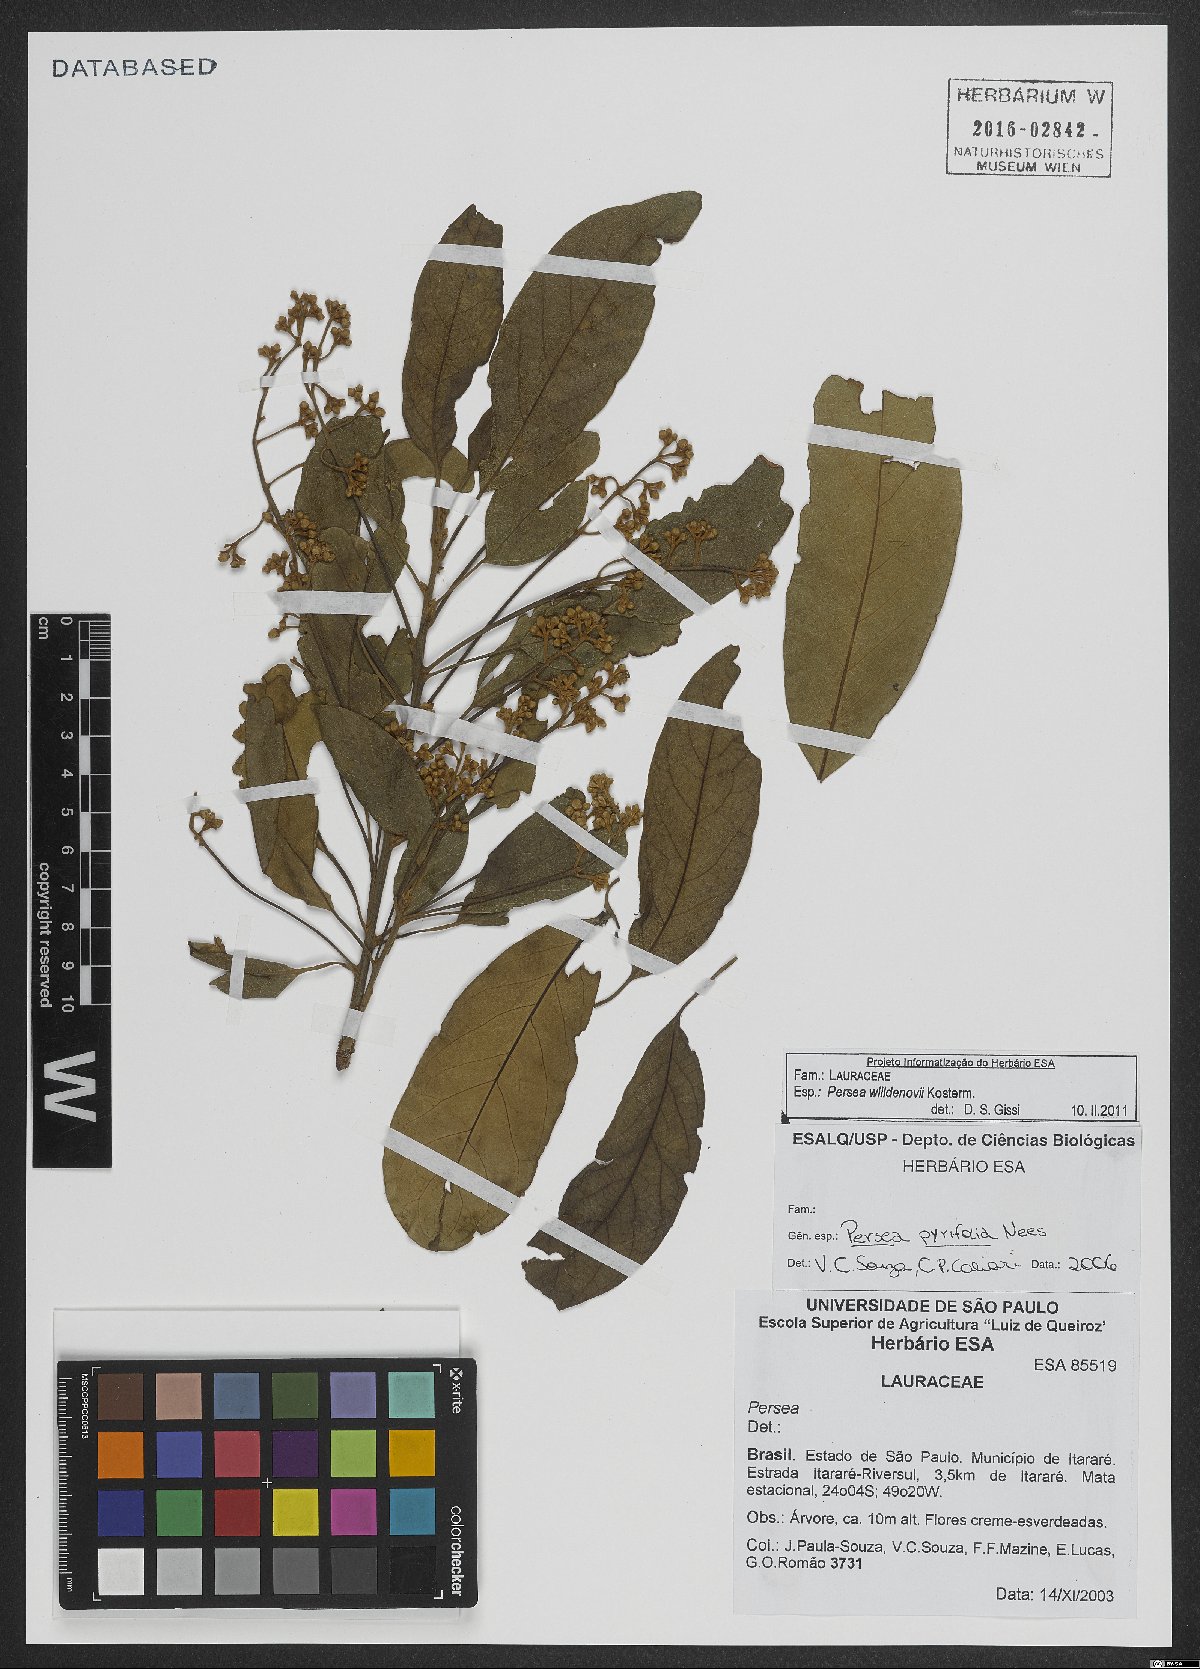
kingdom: Plantae
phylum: Tracheophyta
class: Magnoliopsida
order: Laurales
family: Lauraceae
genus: Persea
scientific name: Persea willdenovii
